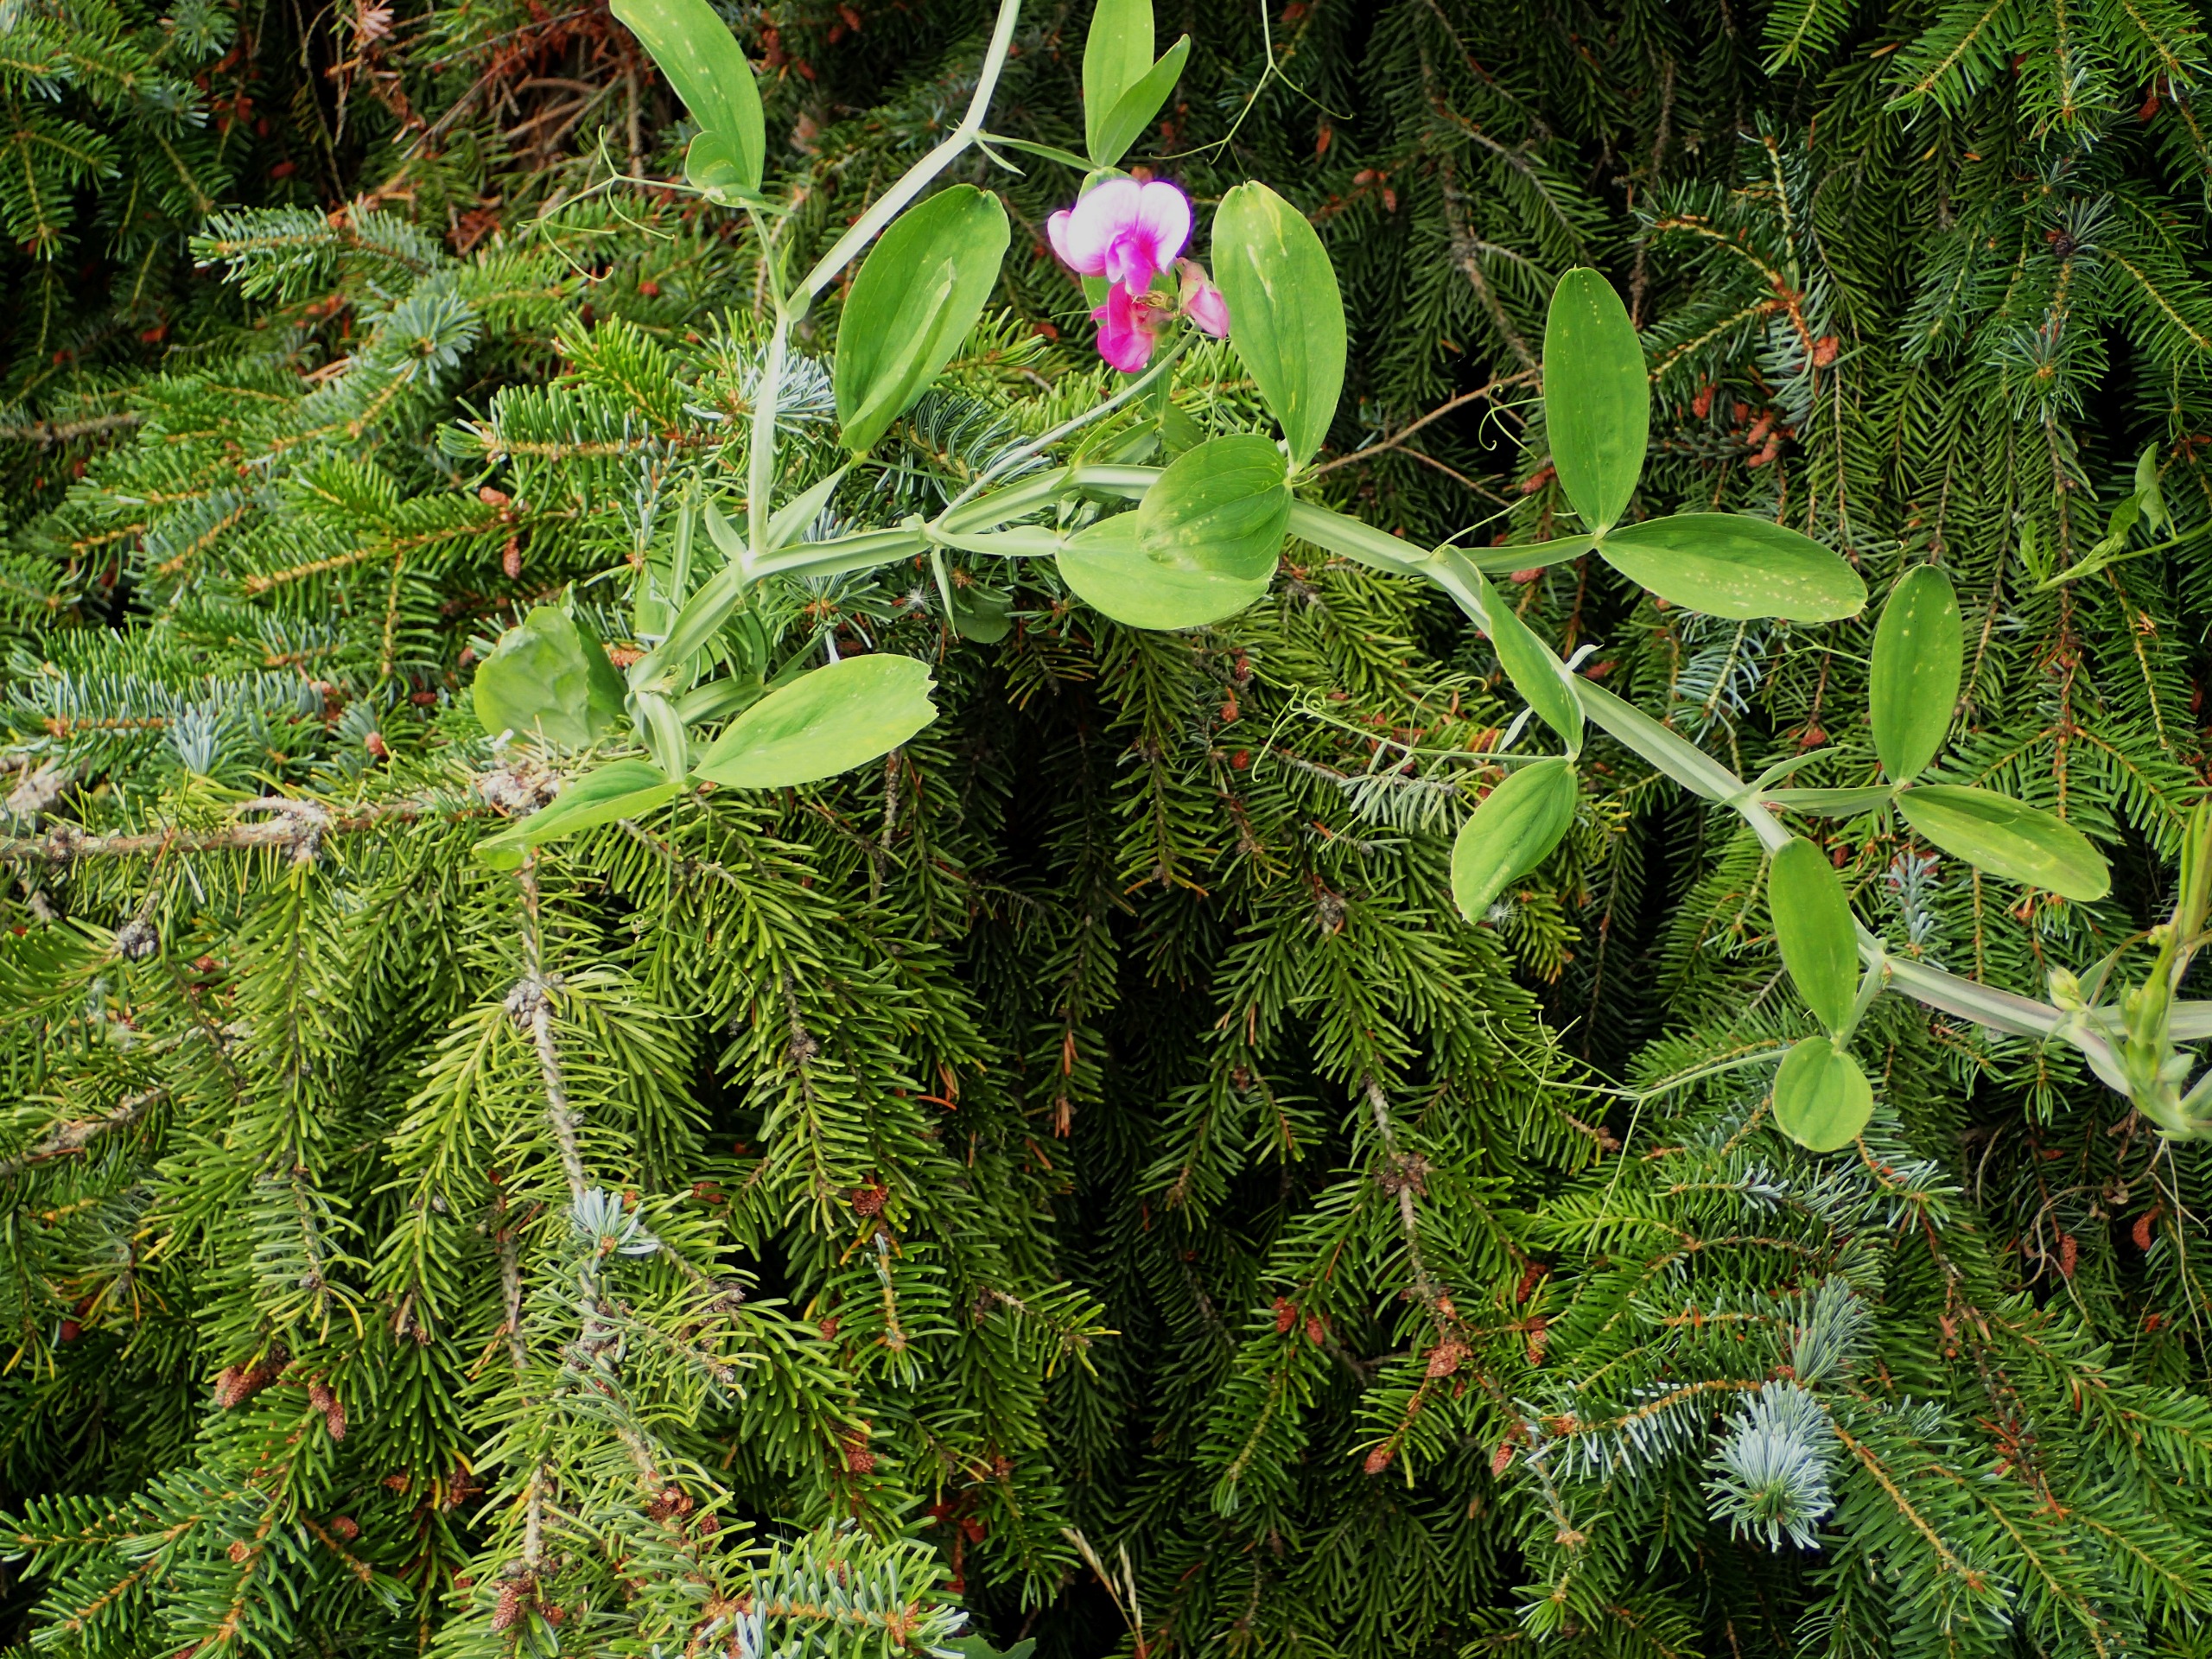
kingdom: Plantae
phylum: Tracheophyta
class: Magnoliopsida
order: Fabales
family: Fabaceae
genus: Lathyrus
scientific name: Lathyrus latifolius
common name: Flerårig ærteblomst
